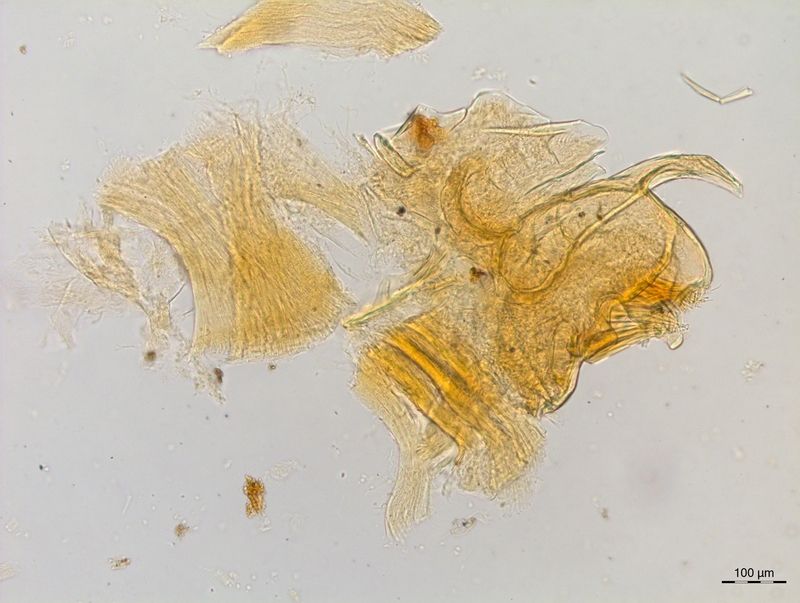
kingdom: Animalia
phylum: Arthropoda
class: Diplopoda
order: Chordeumatida
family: Craspedosomatidae
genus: Craspedosoma
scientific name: Craspedosoma rawlinsii
